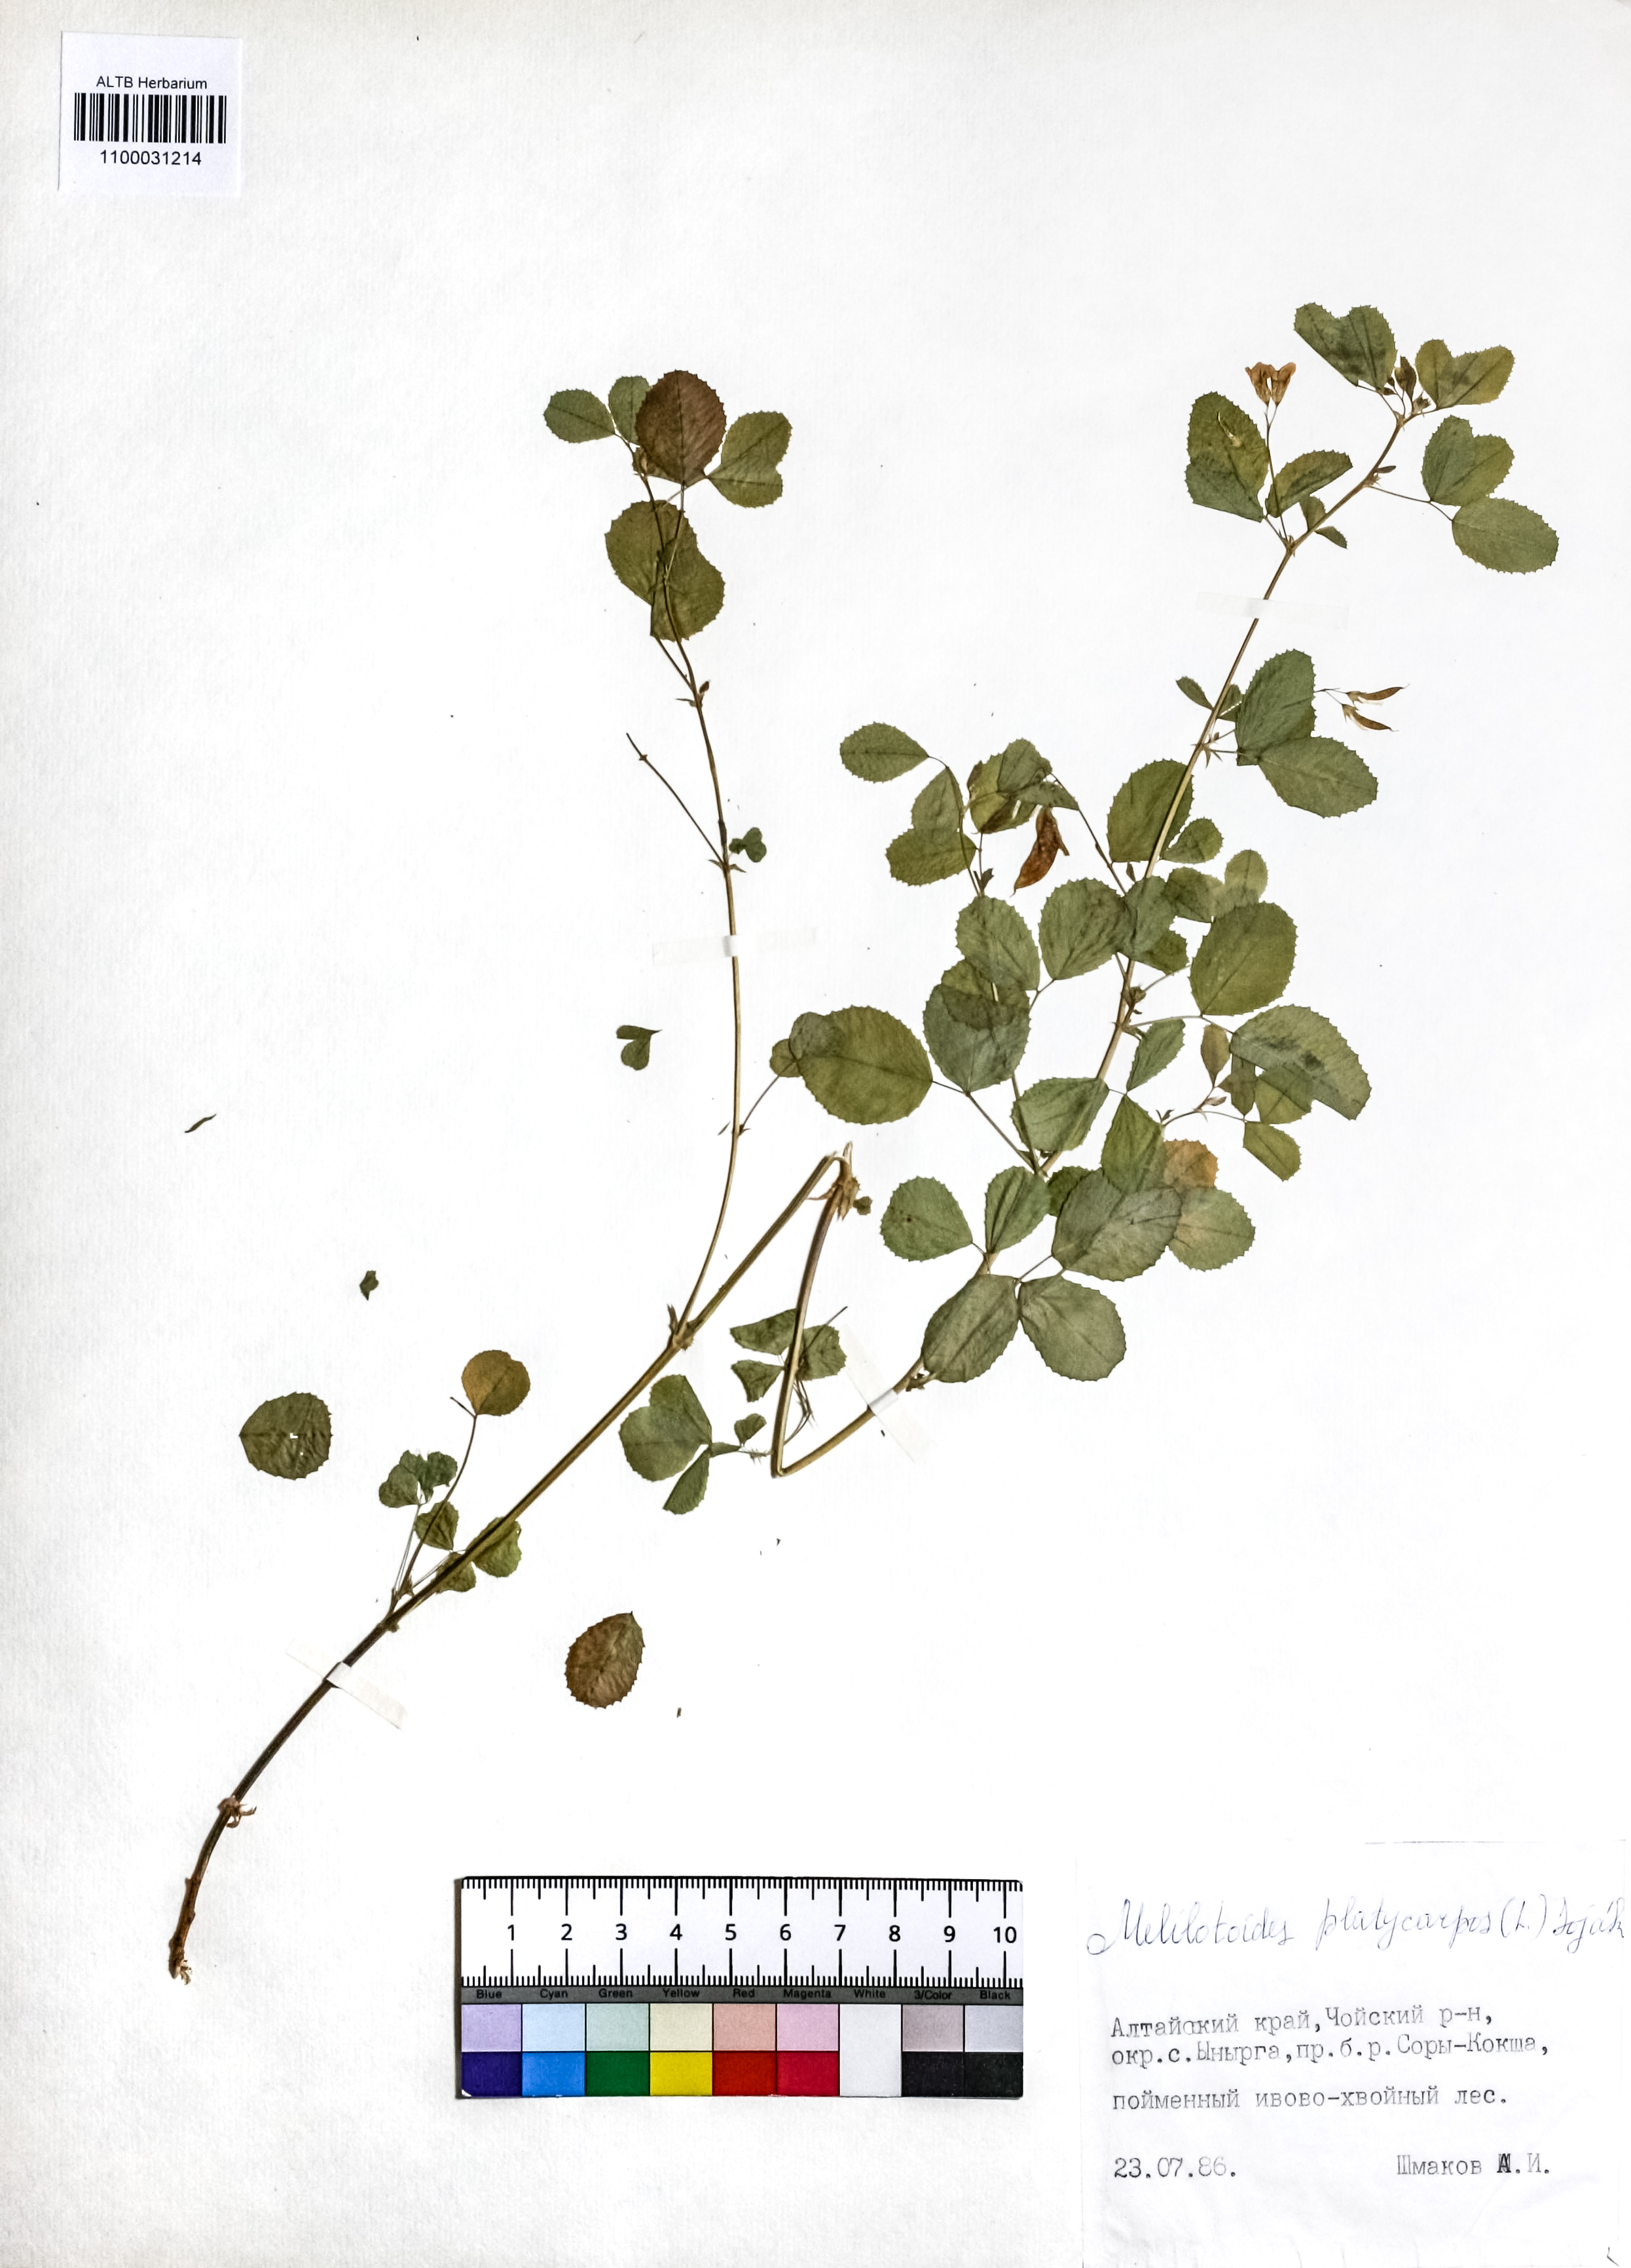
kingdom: Plantae
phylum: Tracheophyta
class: Magnoliopsida
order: Fabales
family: Fabaceae
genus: Medicago
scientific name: Medicago platycarpos
